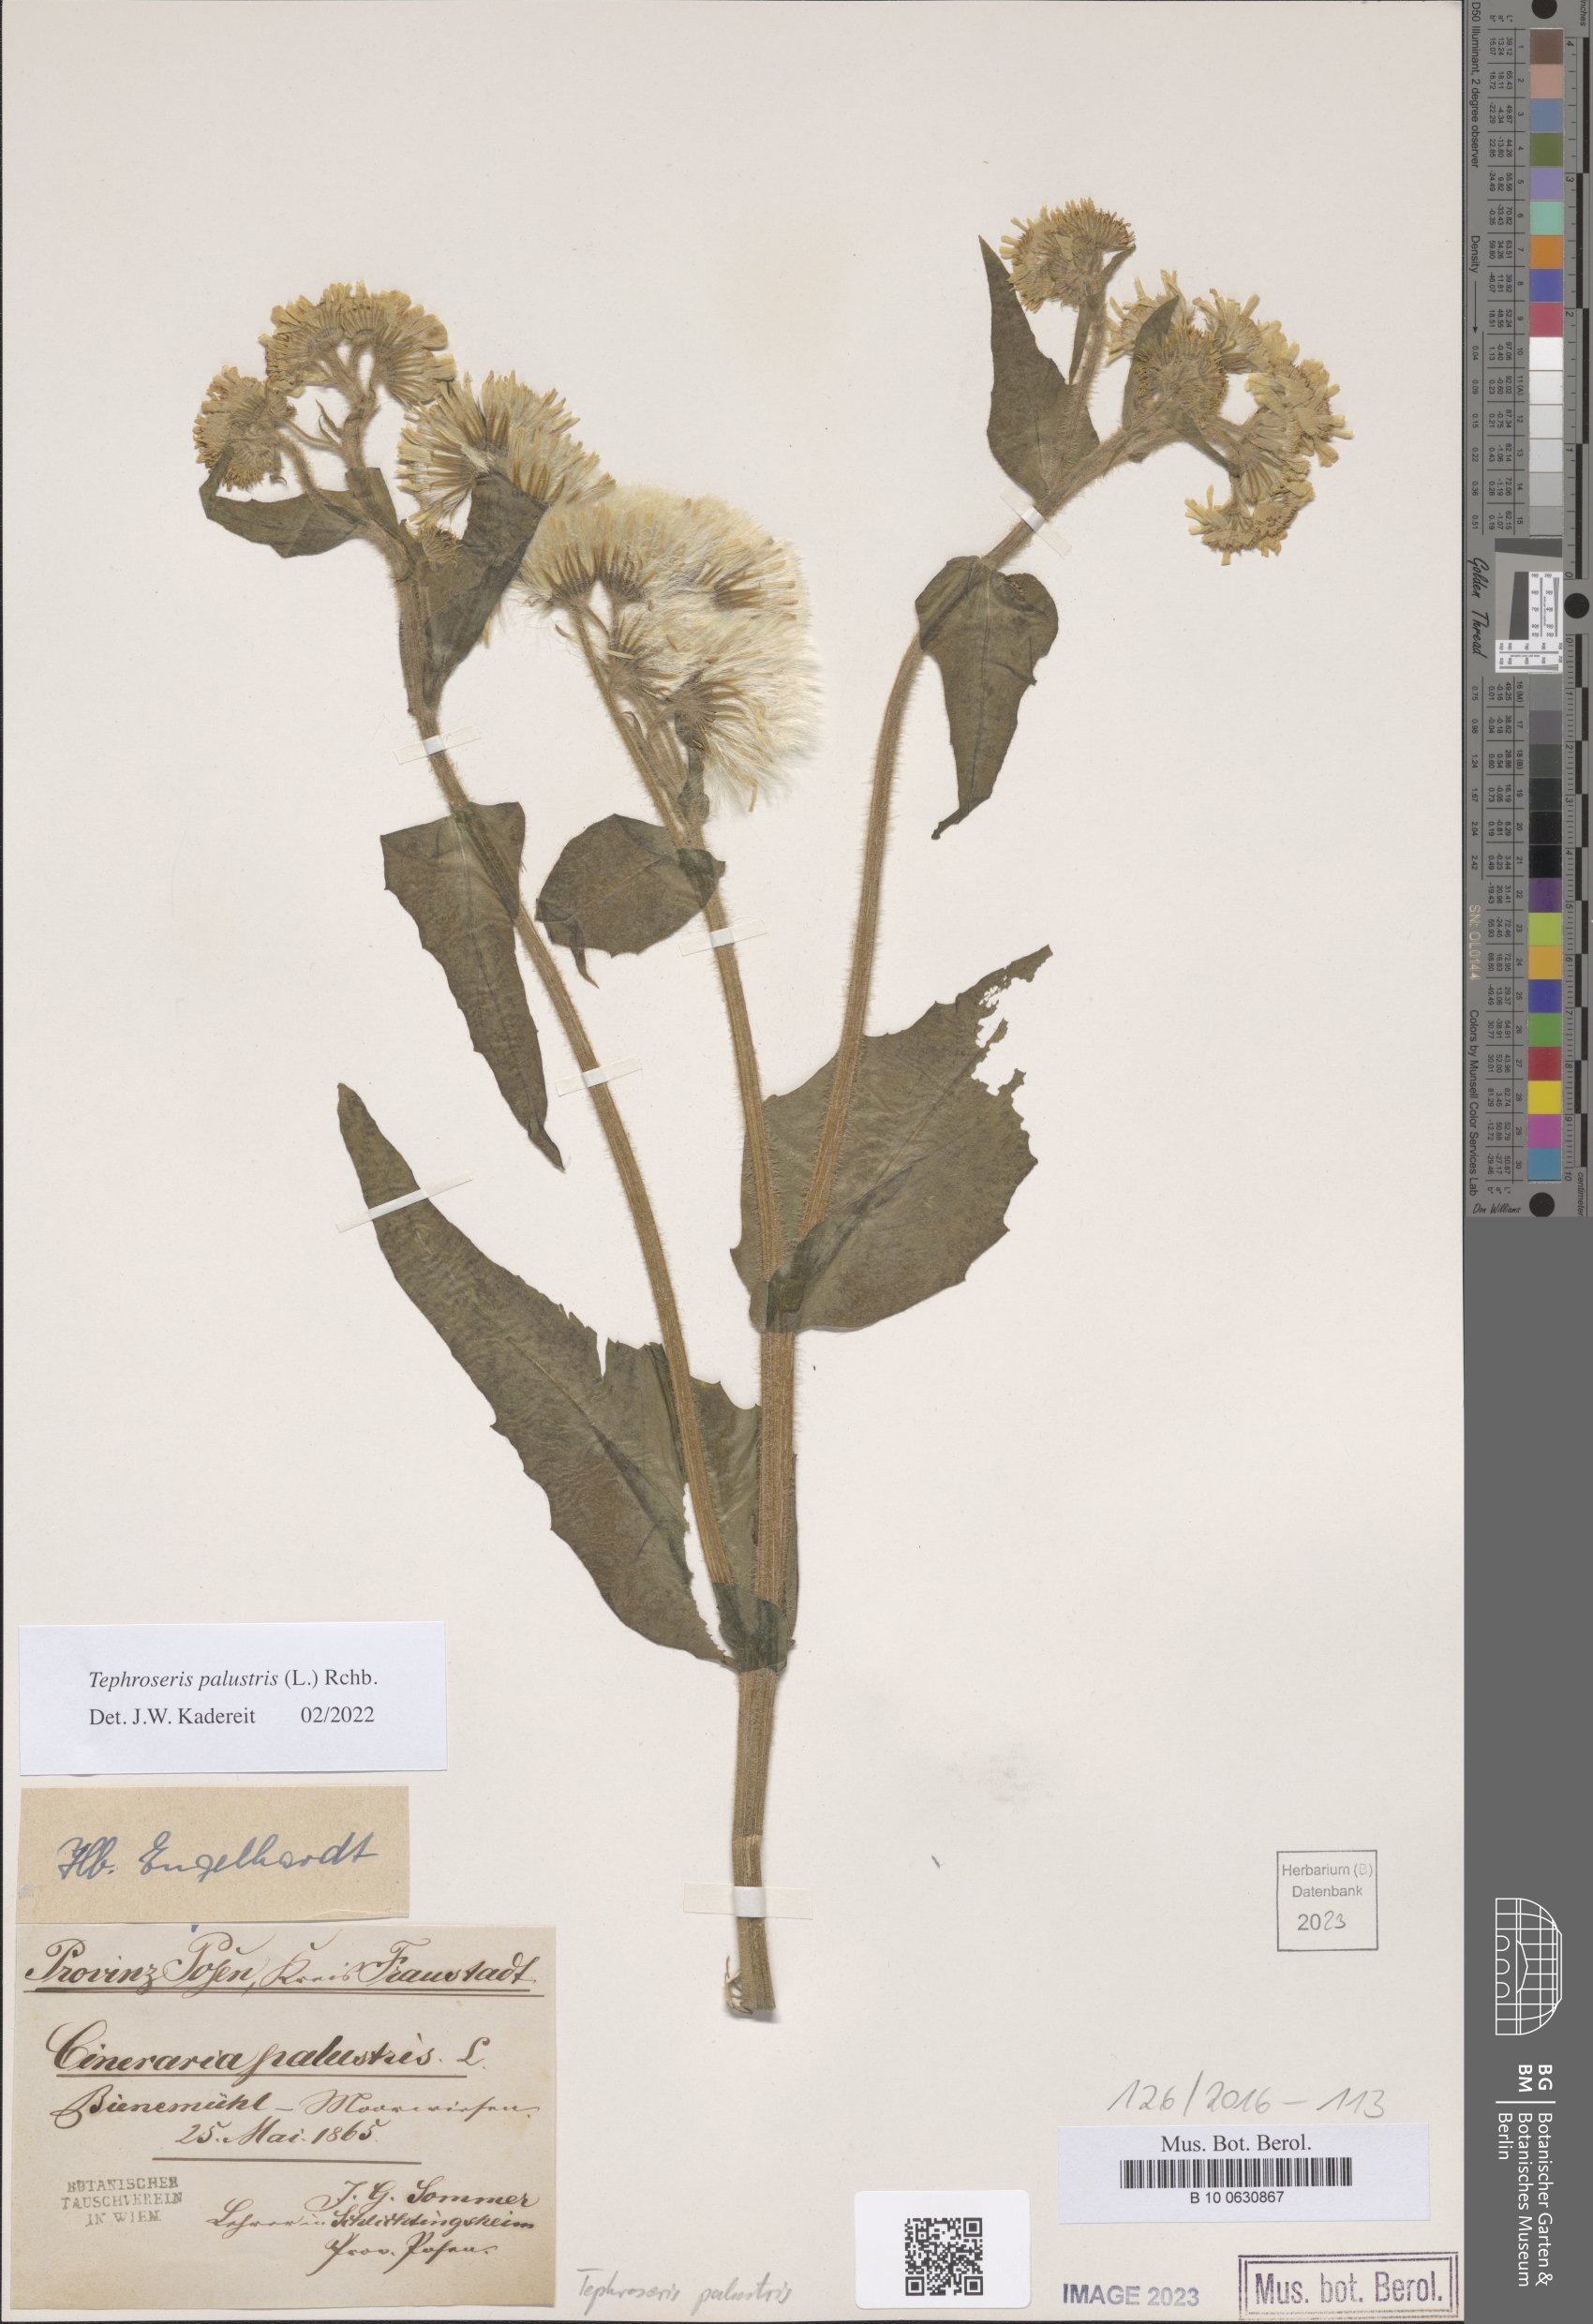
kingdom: Plantae
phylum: Tracheophyta
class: Magnoliopsida
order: Asterales
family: Asteraceae
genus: Tephroseris
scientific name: Tephroseris palustris
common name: Marsh fleawort
